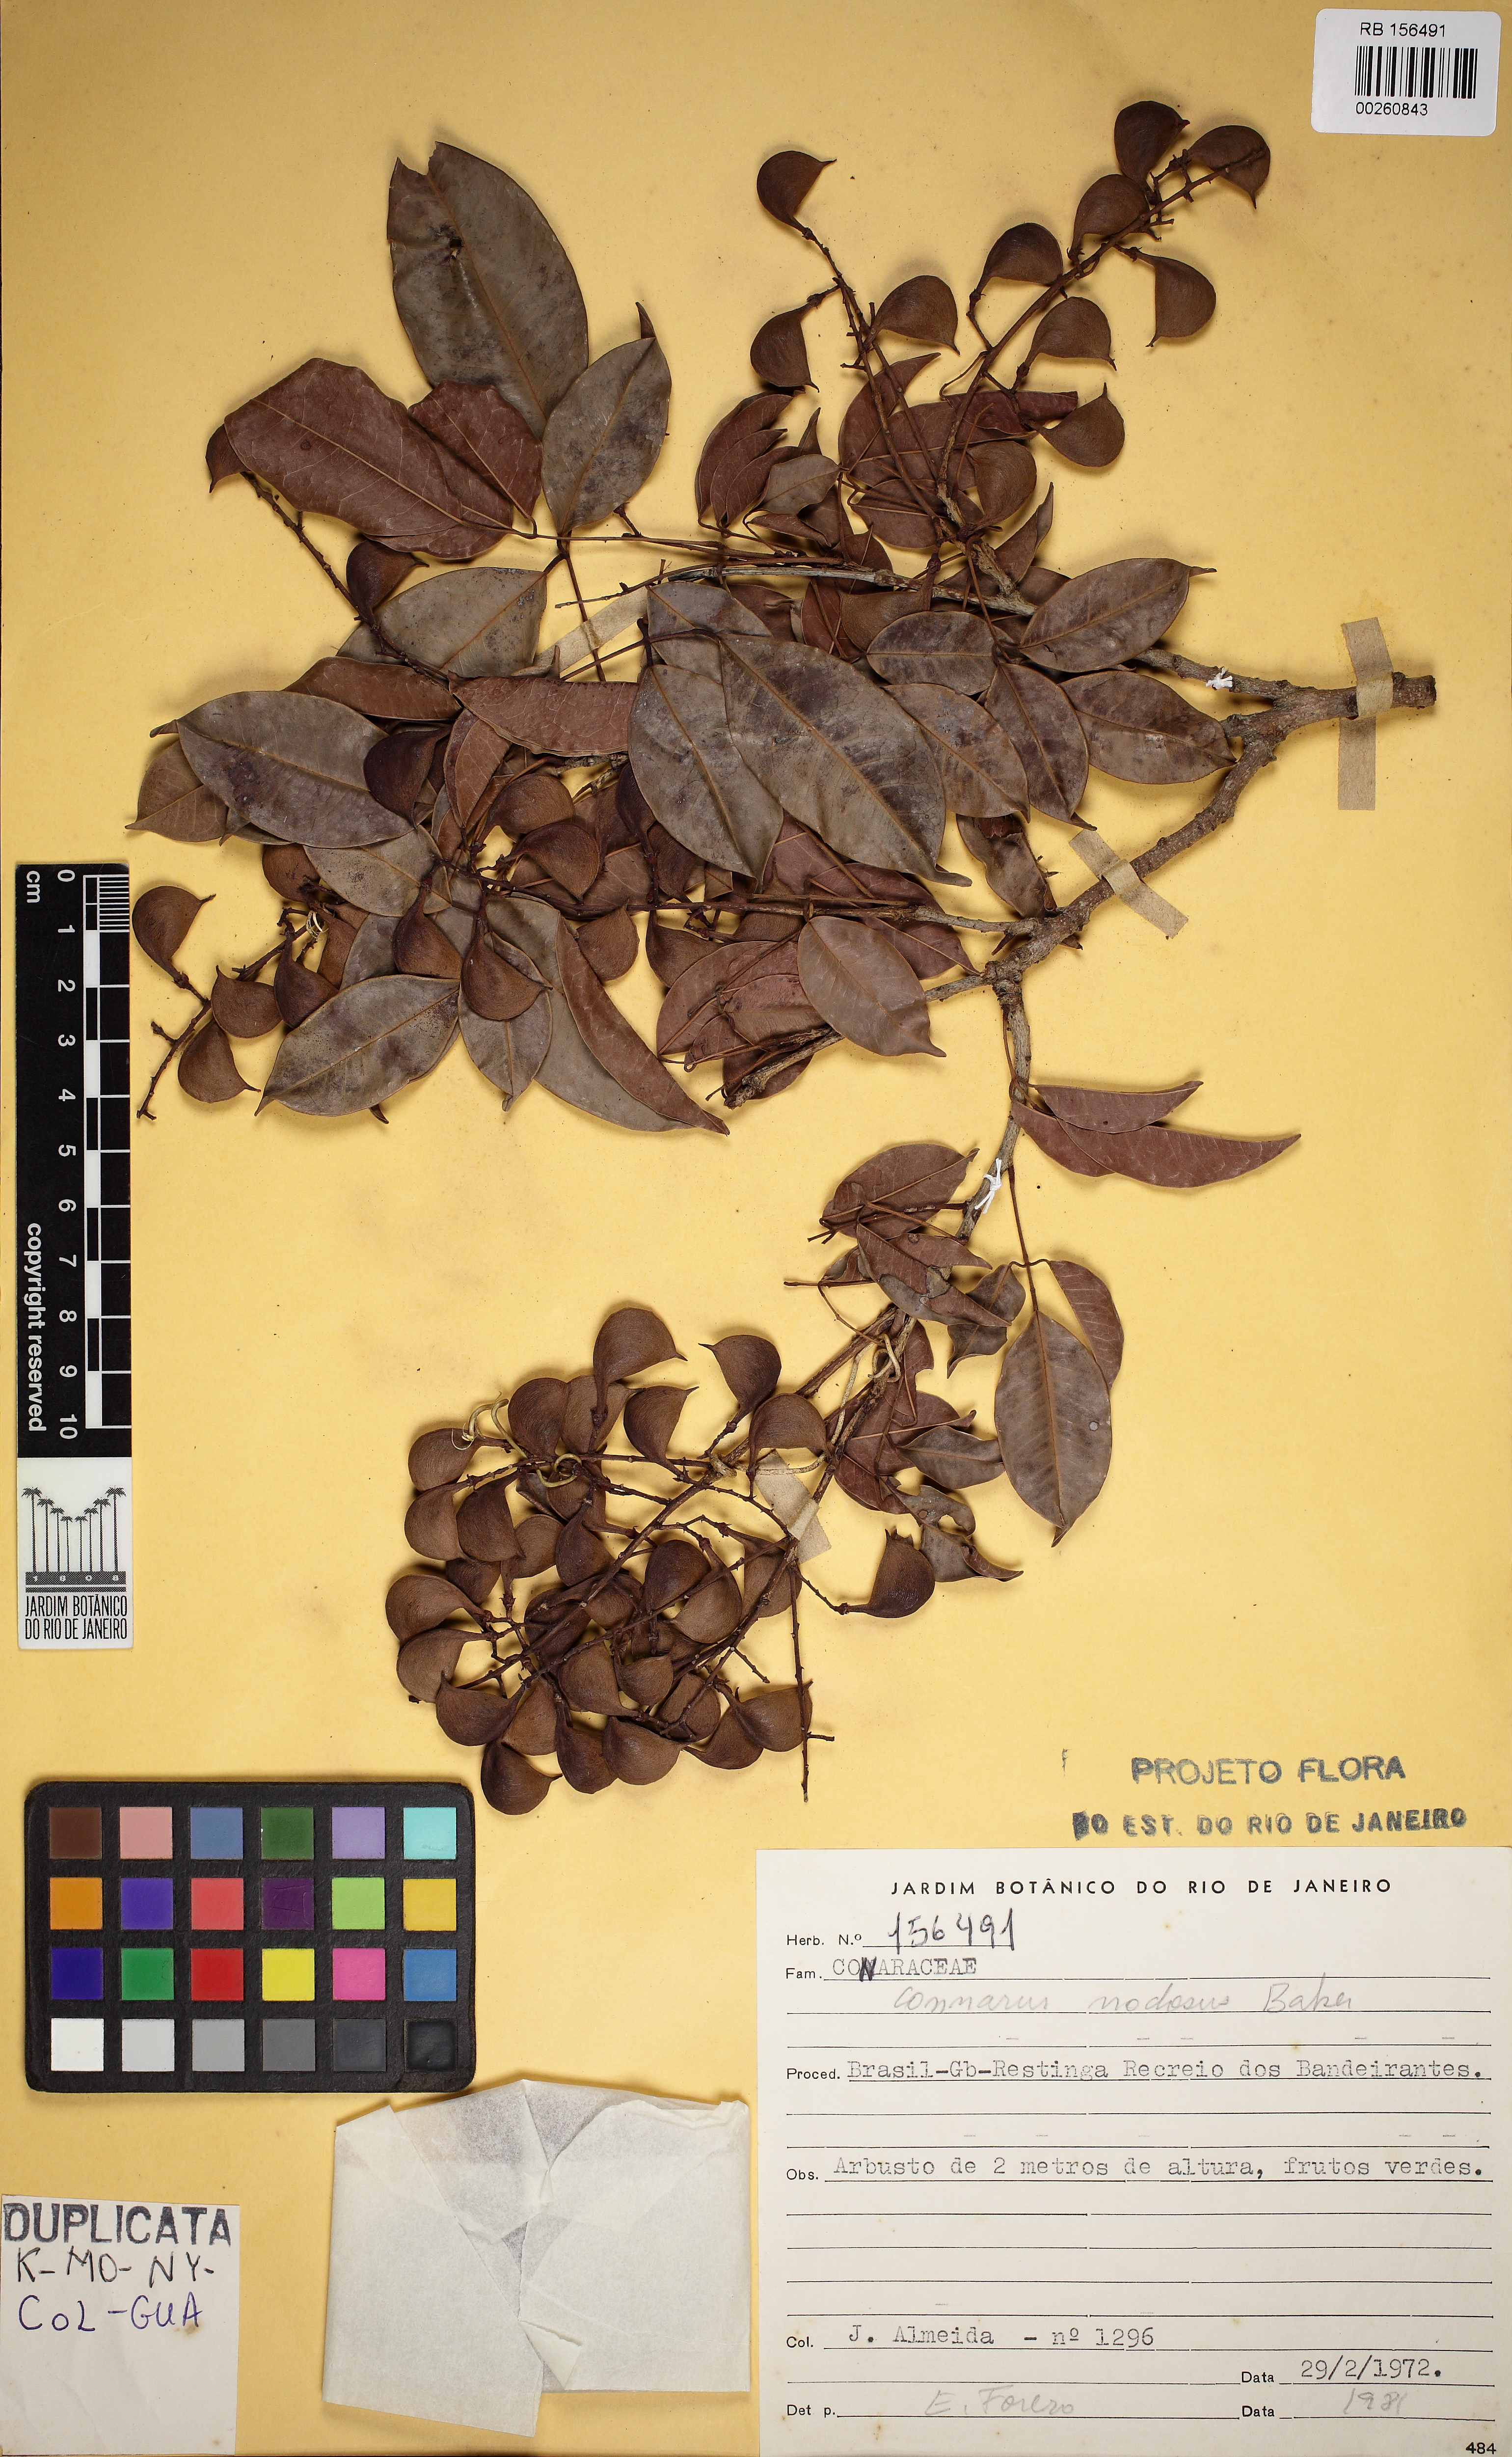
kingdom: Plantae
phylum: Tracheophyta
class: Magnoliopsida
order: Oxalidales
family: Connaraceae
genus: Connarus
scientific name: Connarus nodosus
